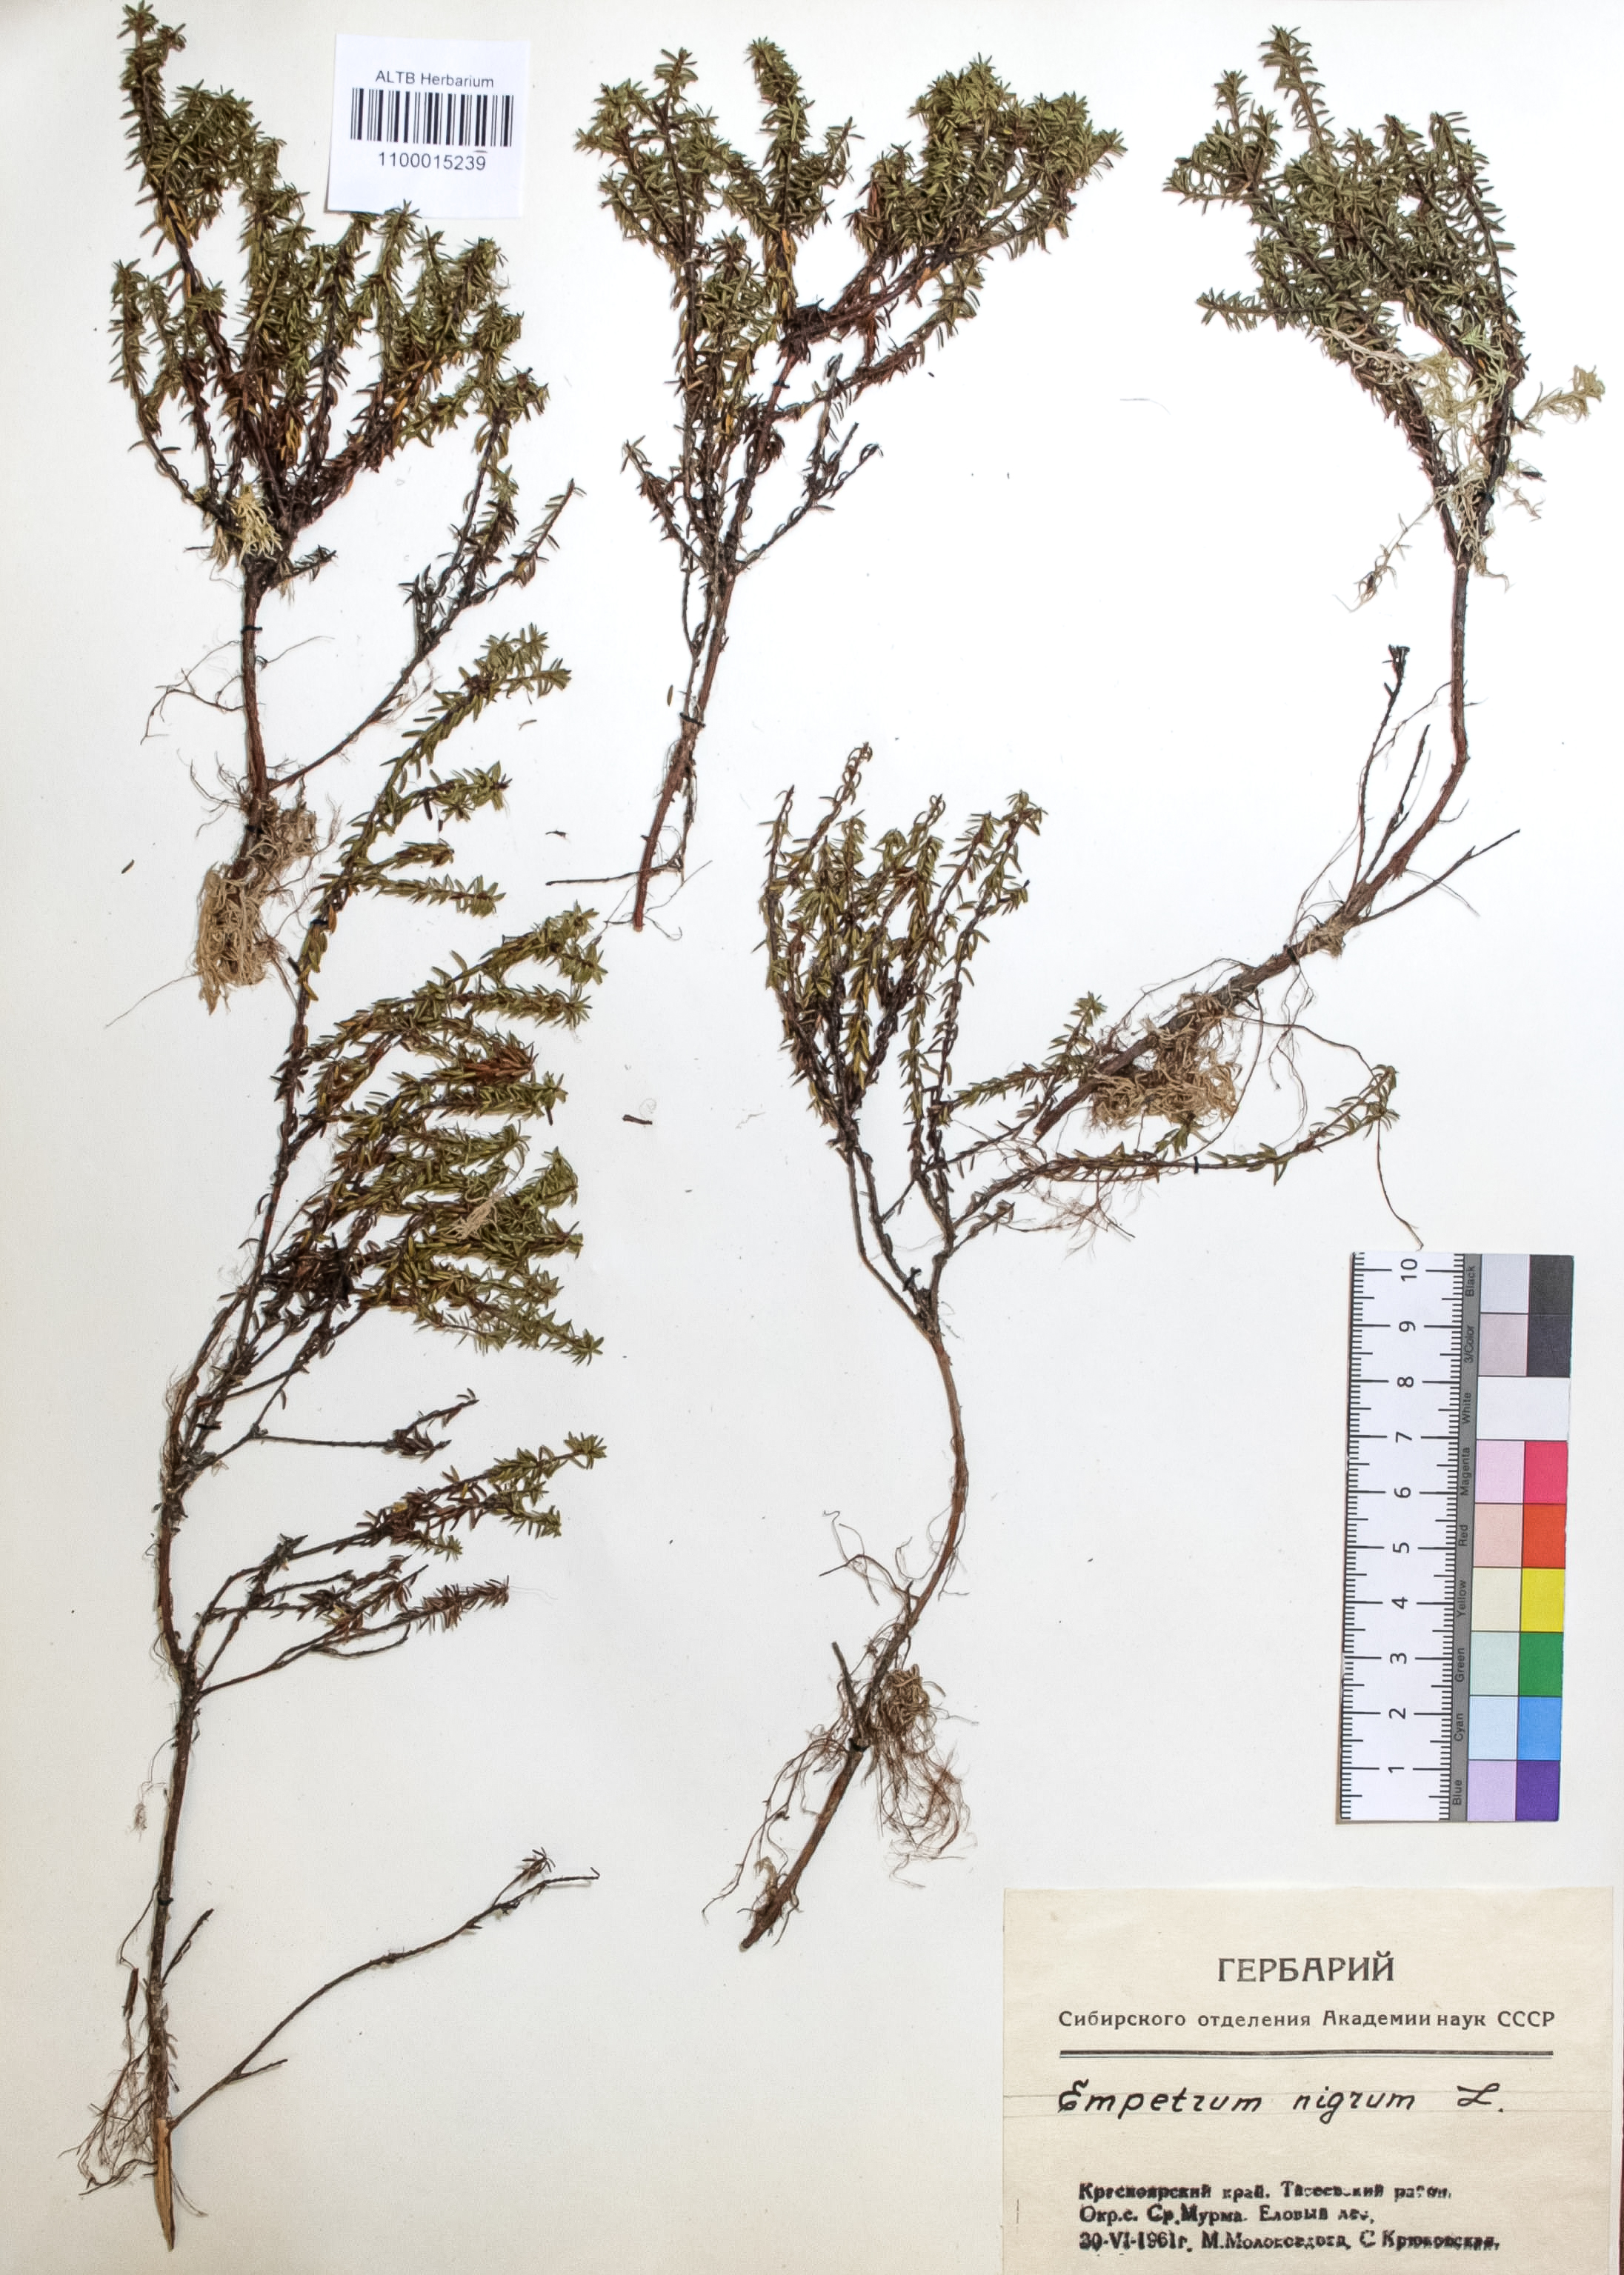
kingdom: Plantae
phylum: Tracheophyta
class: Magnoliopsida
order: Ericales
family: Ericaceae
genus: Empetrum
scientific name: Empetrum nigrum
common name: Black crowberry
